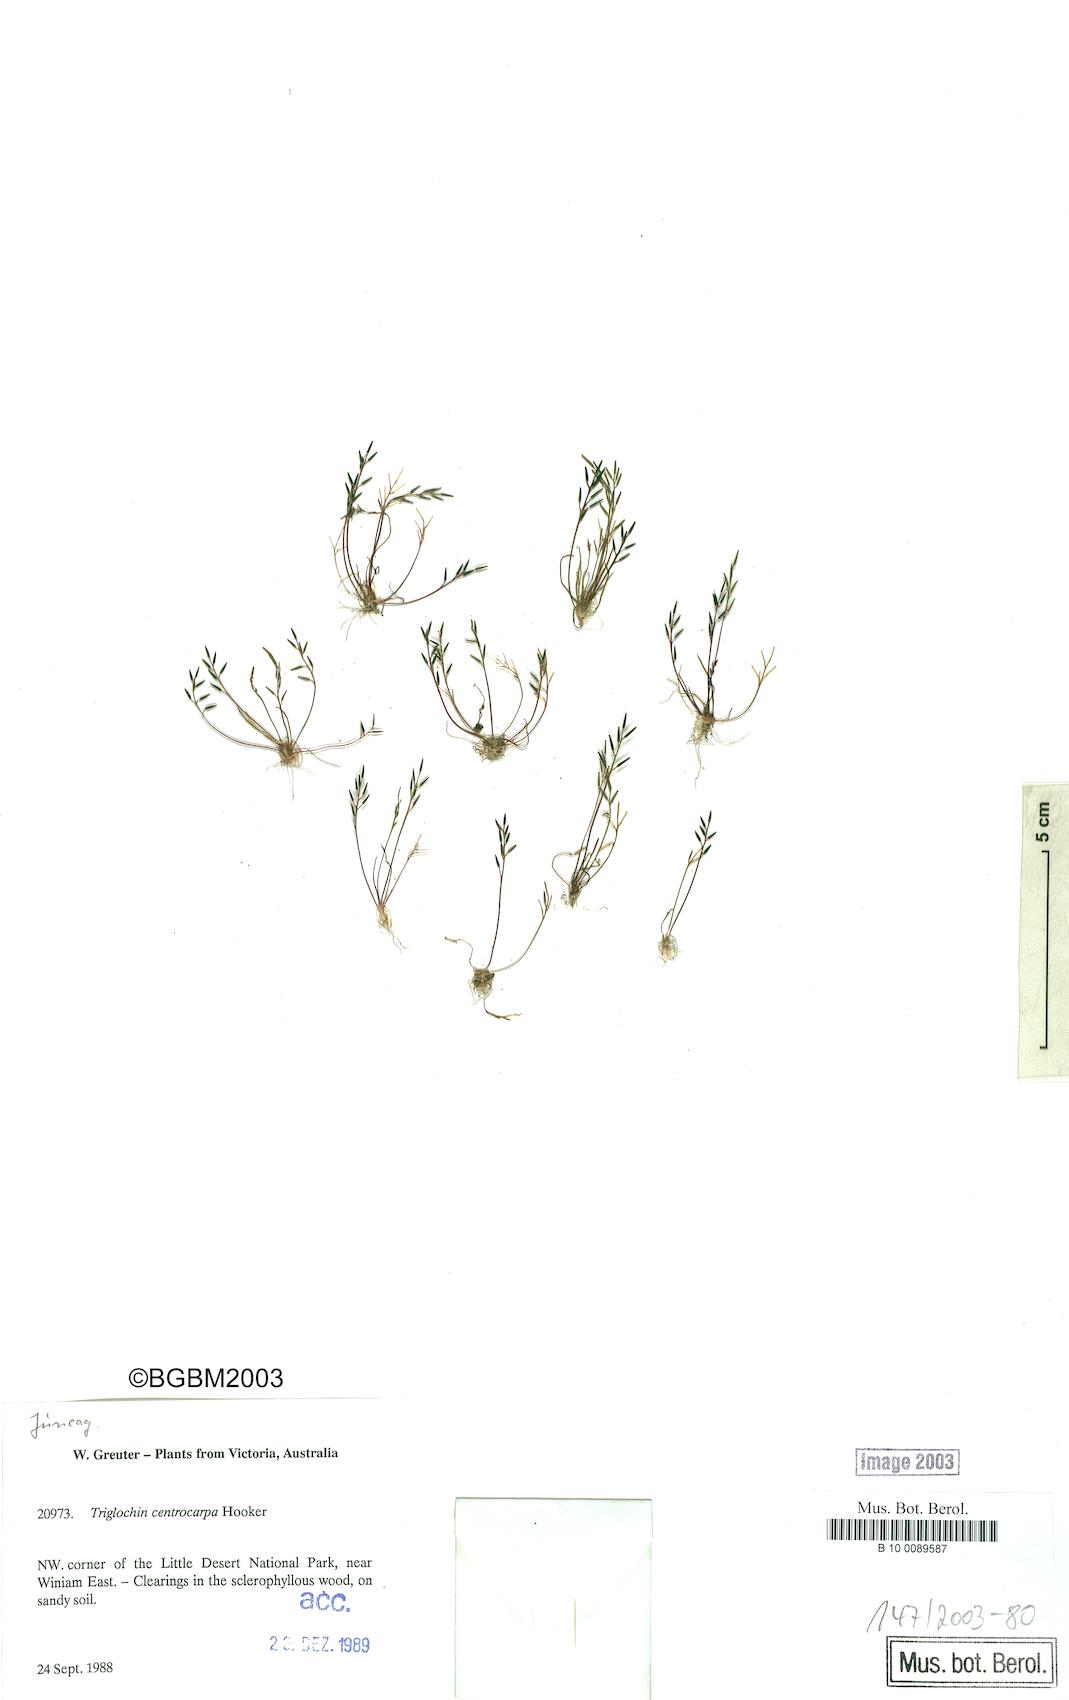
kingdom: Plantae
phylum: Tracheophyta
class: Liliopsida
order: Alismatales
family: Juncaginaceae
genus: Triglochin
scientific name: Triglochin centrocarpa
